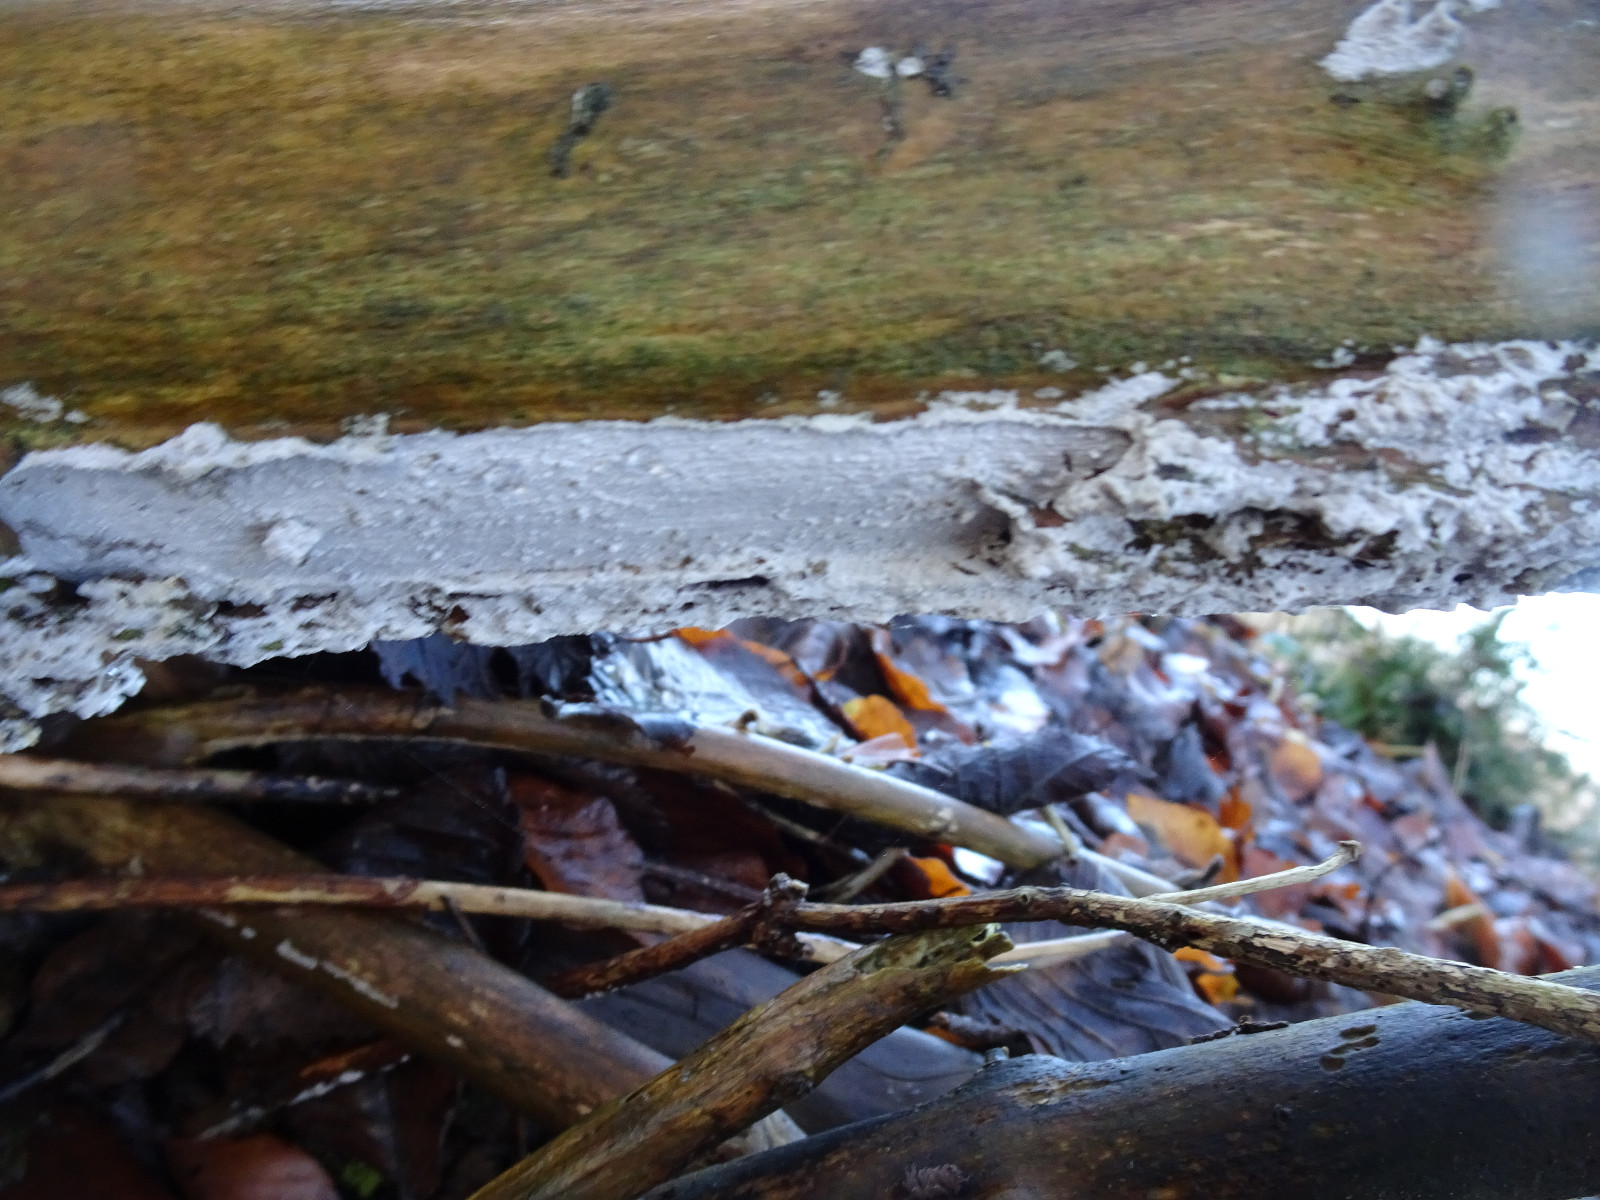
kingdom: Fungi
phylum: Basidiomycota
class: Agaricomycetes
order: Corticiales
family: Corticiaceae
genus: Lyomyces
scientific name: Lyomyces sambuci
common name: almindelig hyldehinde
